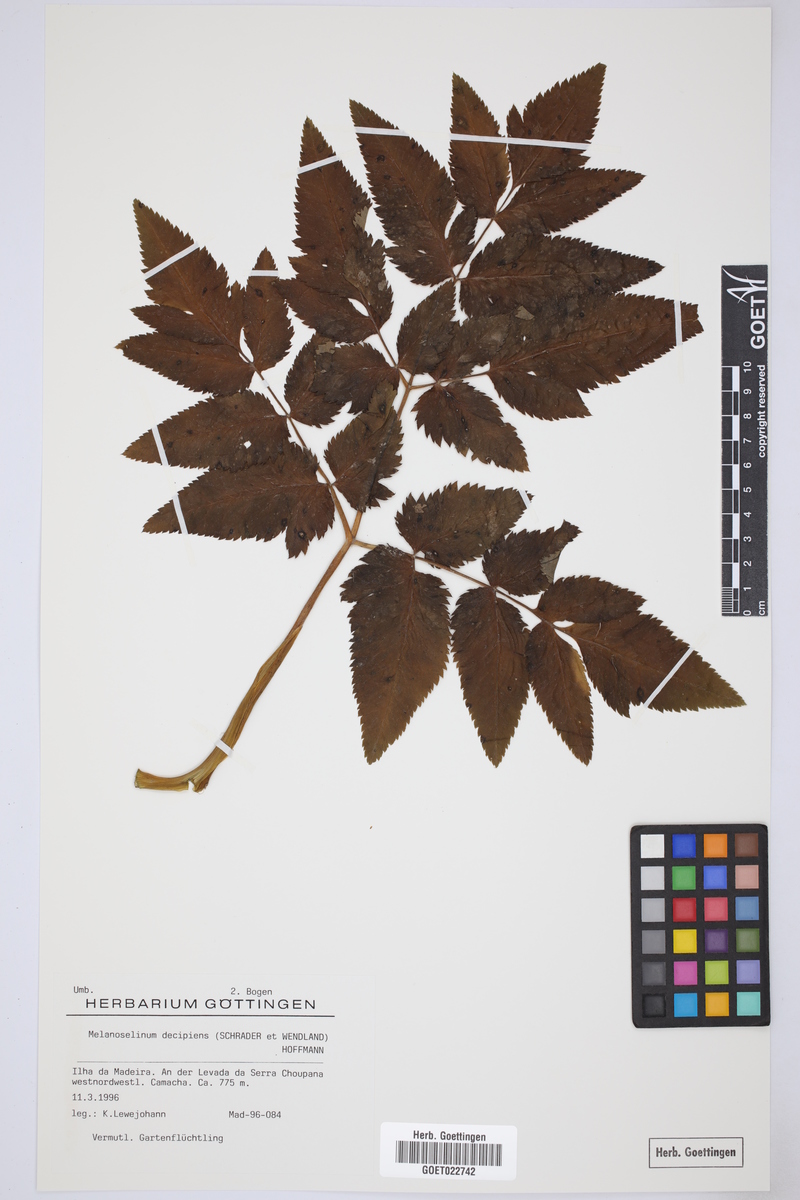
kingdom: Plantae
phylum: Tracheophyta
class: Magnoliopsida
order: Apiales
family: Apiaceae
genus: Daucus
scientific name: Daucus decipiens
